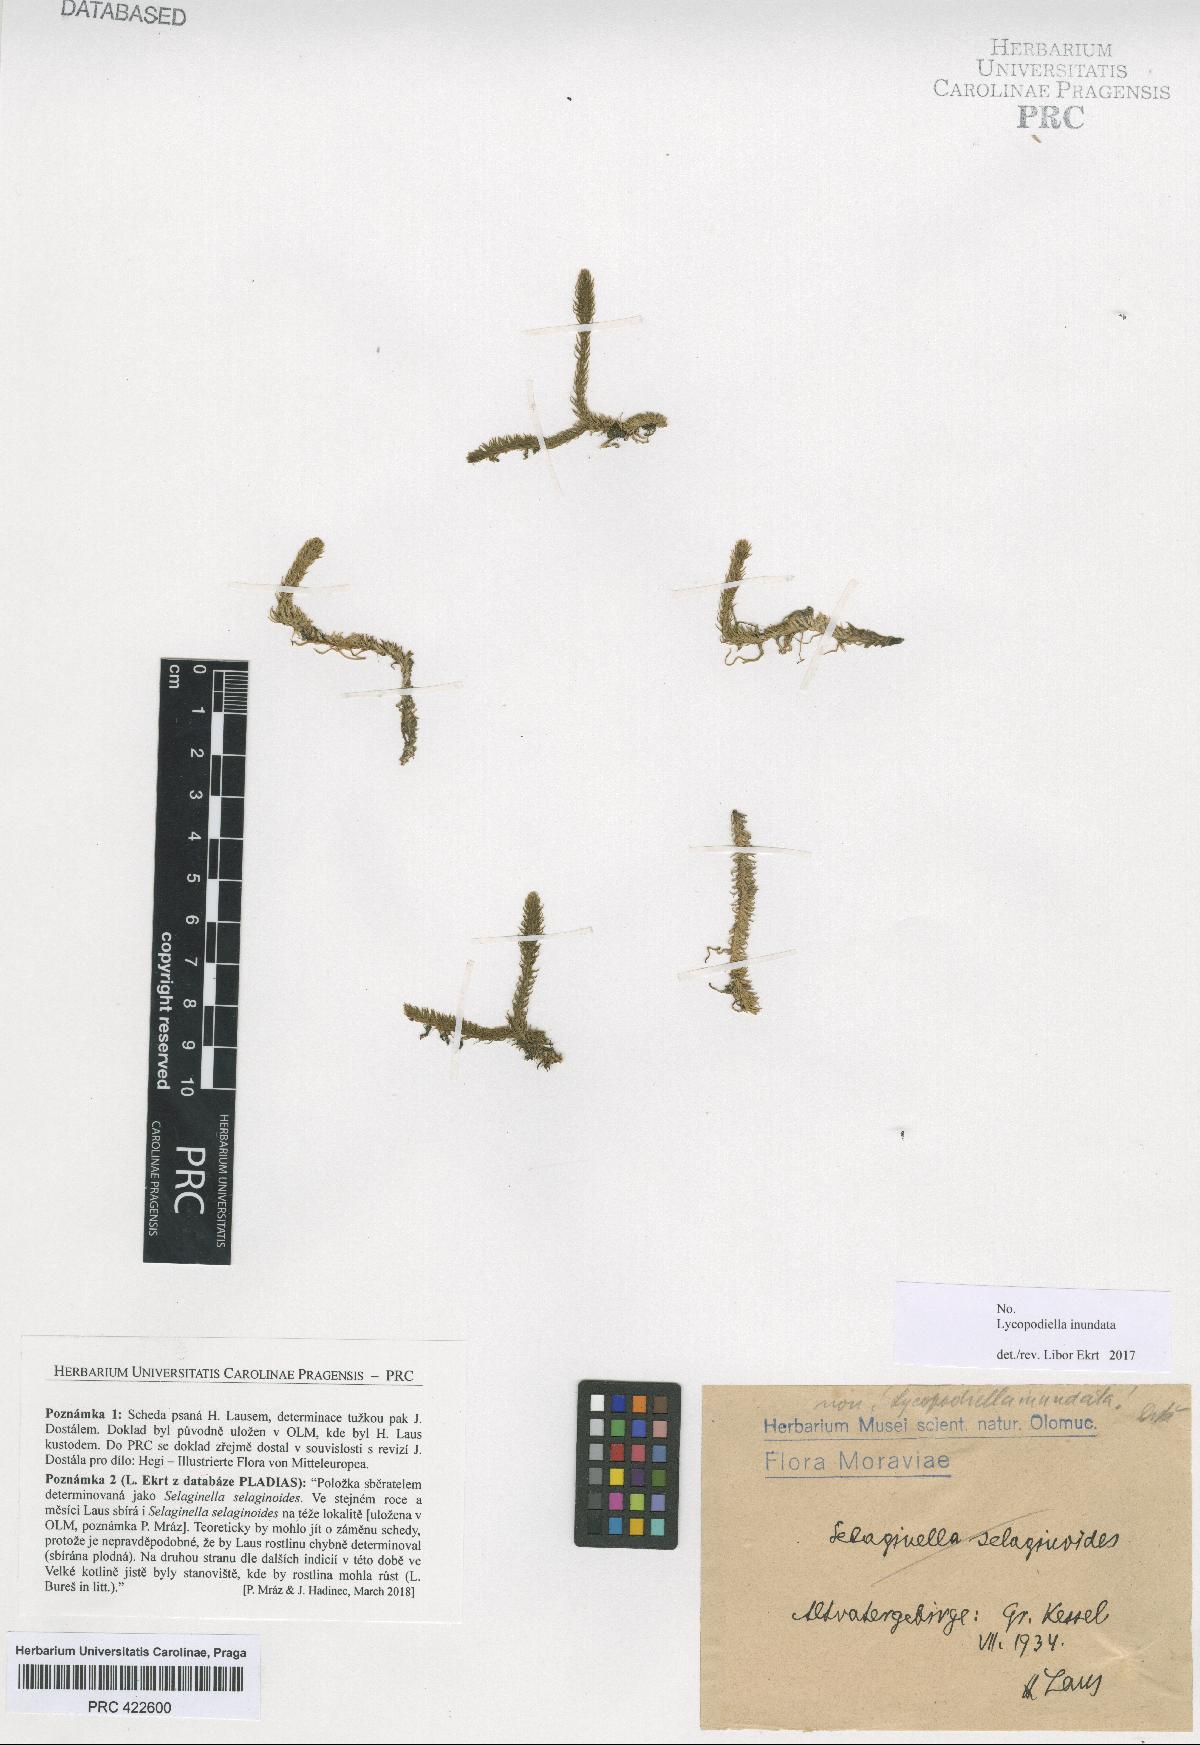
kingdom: Plantae
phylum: Tracheophyta
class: Lycopodiopsida
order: Lycopodiales
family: Lycopodiaceae
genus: Lycopodiella
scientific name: Lycopodiella inundata
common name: Marsh clubmoss
